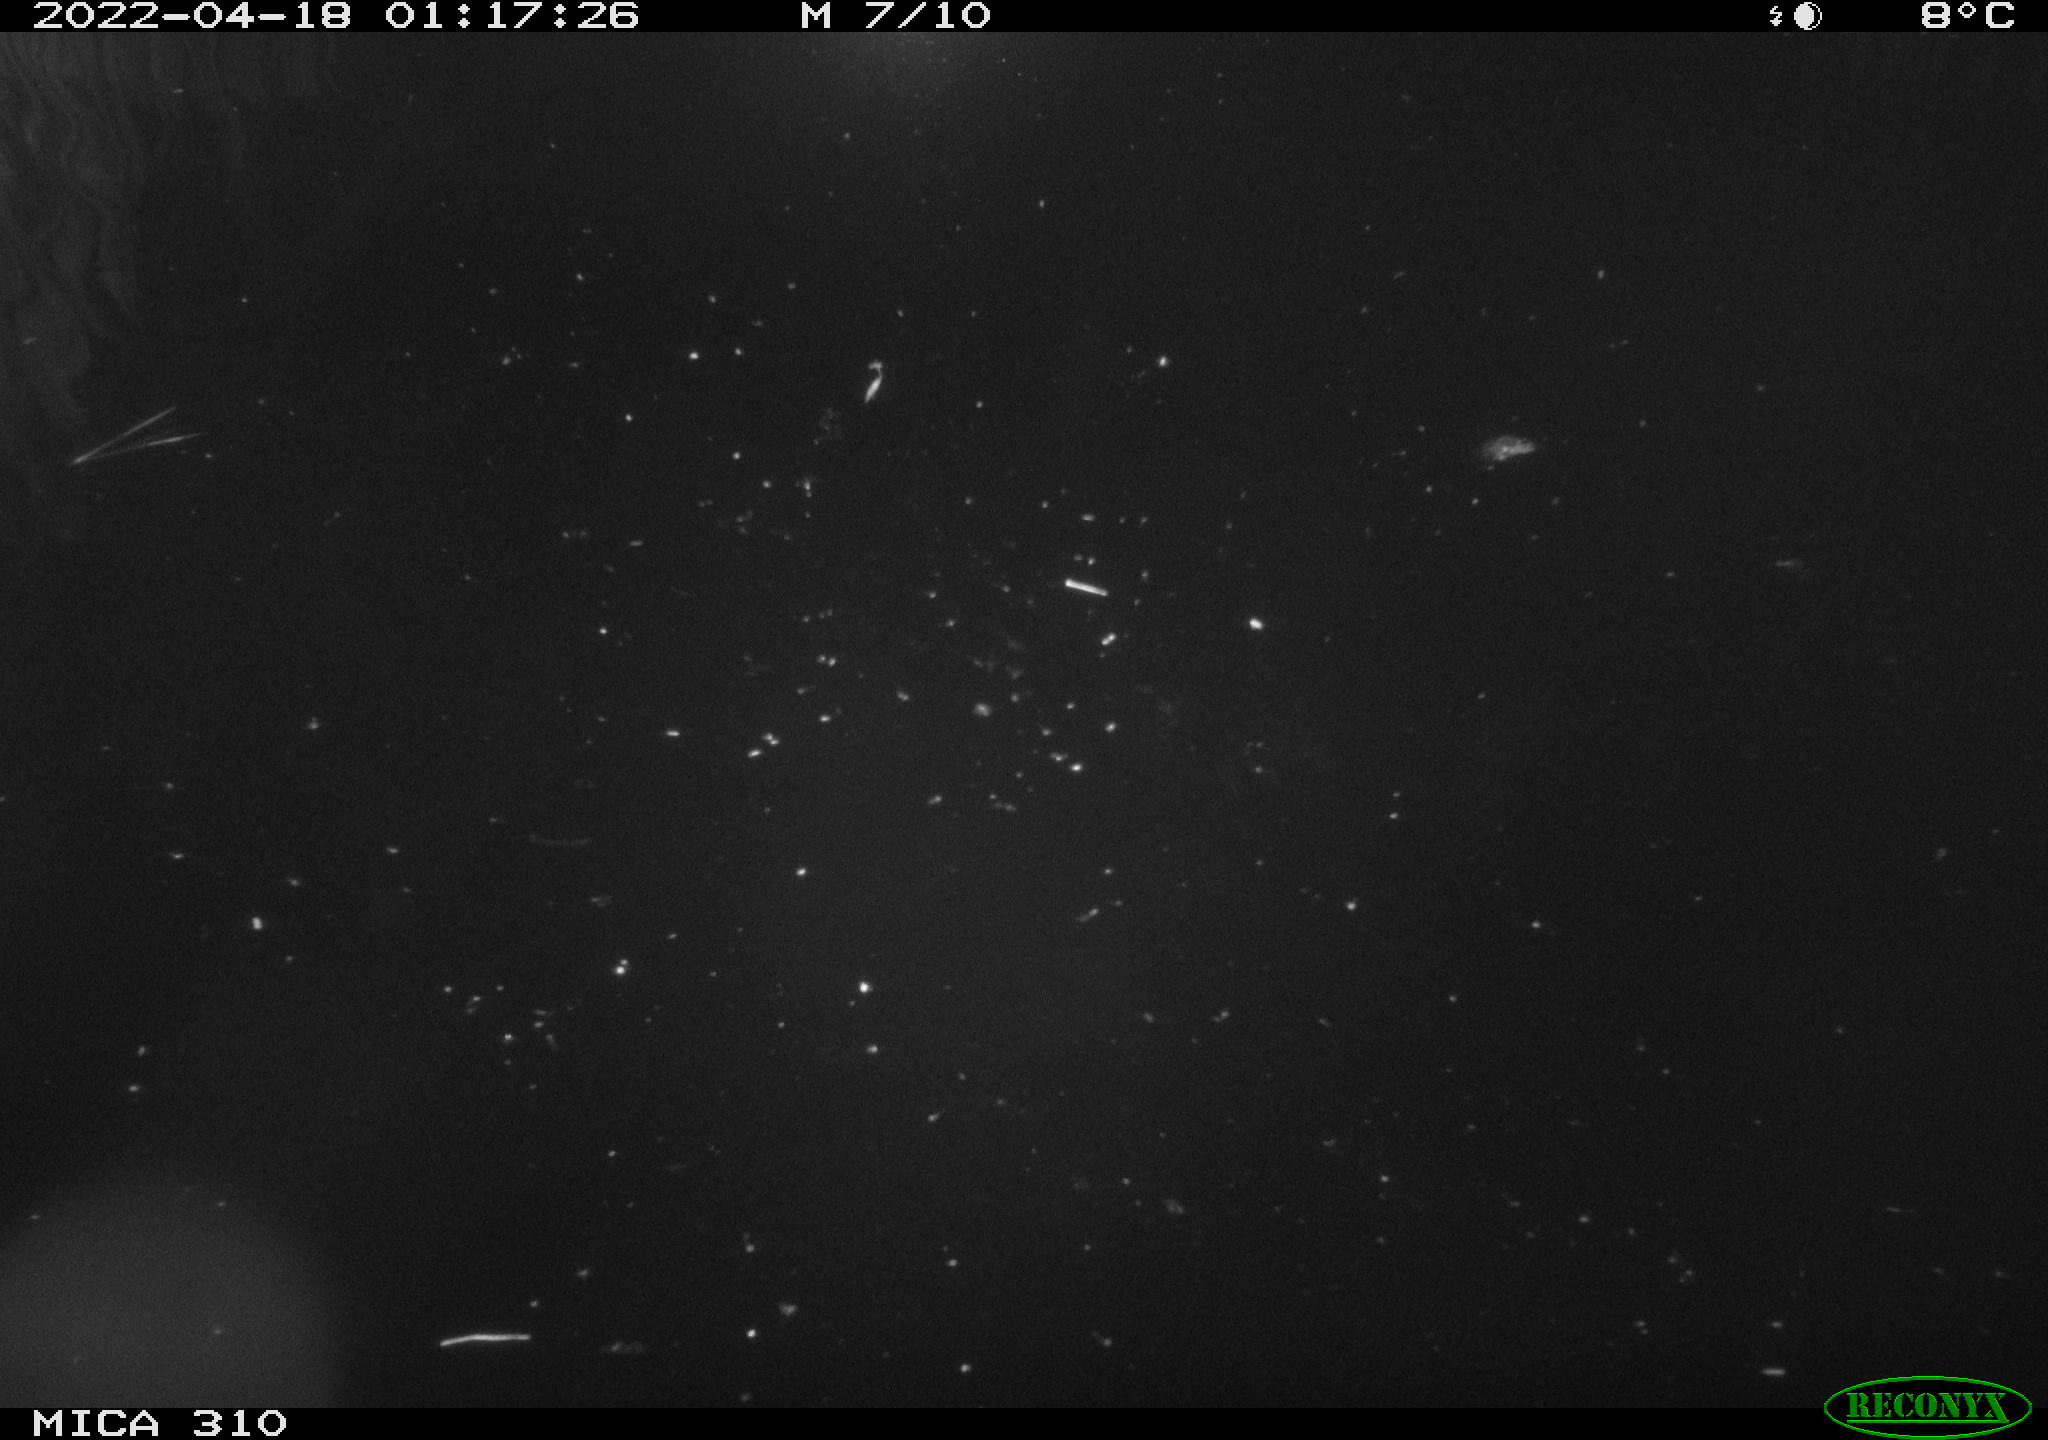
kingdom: Animalia
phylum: Chordata
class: Aves
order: Anseriformes
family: Anatidae
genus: Anas
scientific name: Anas platyrhynchos
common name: Mallard
